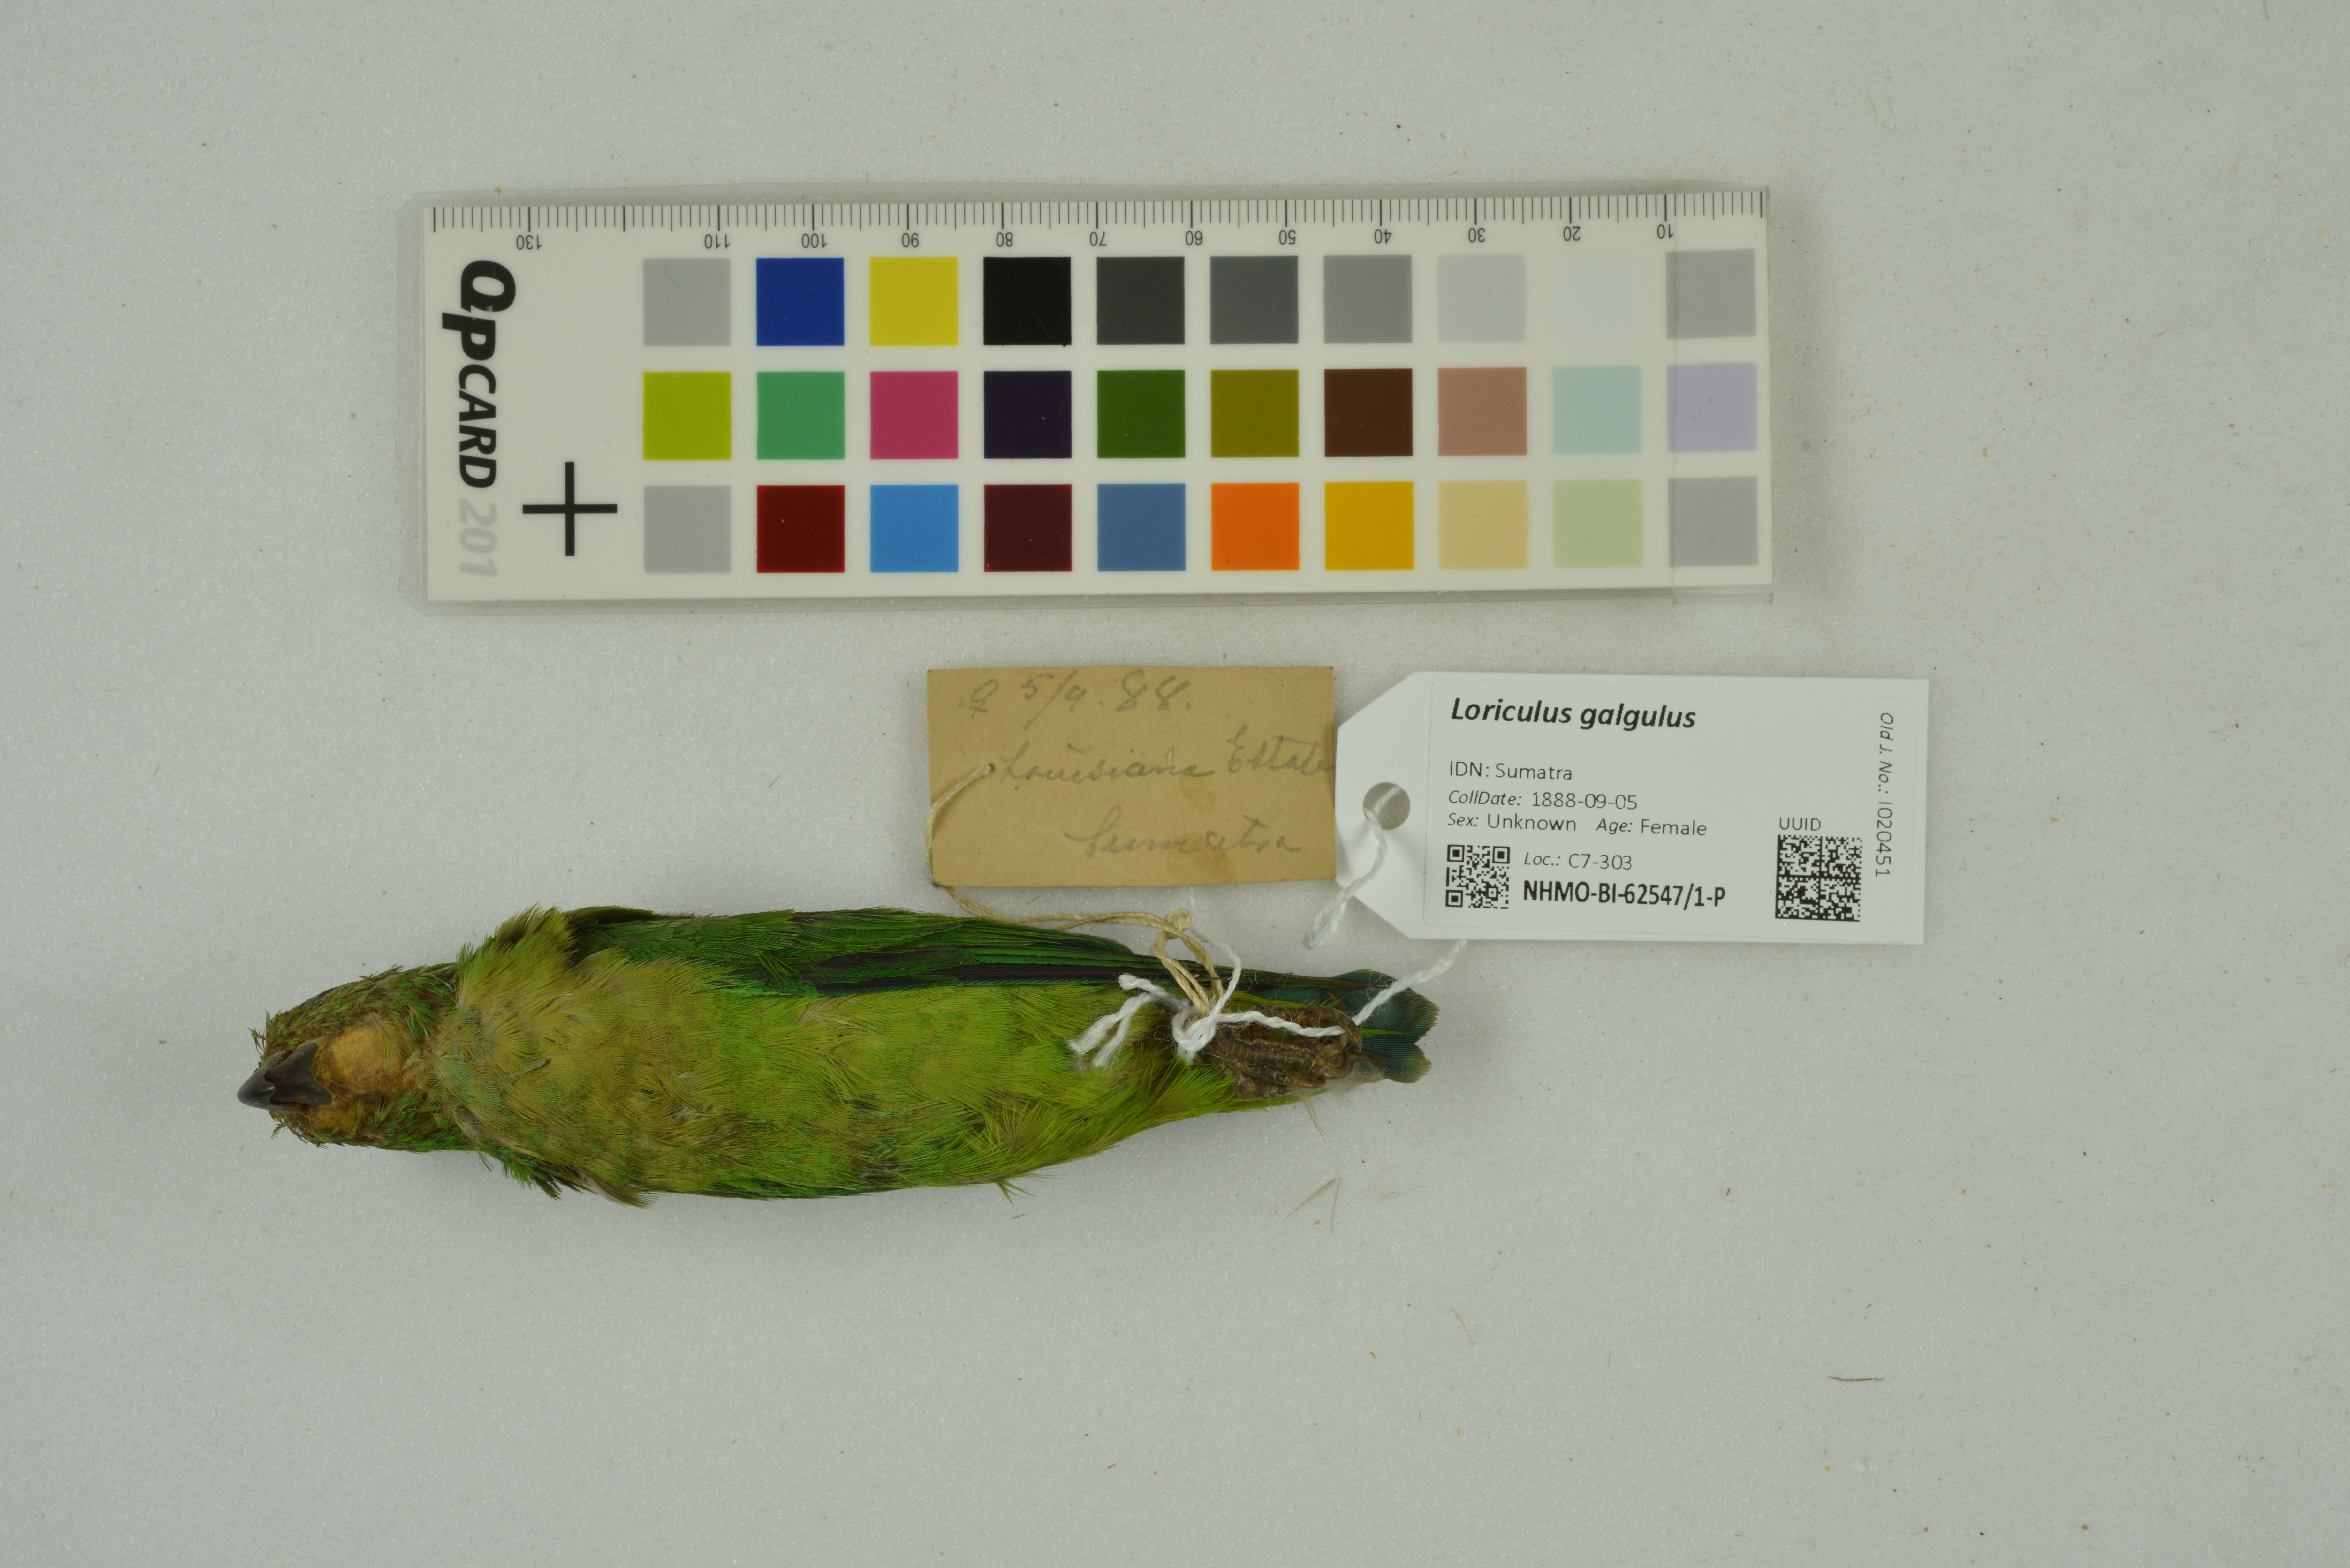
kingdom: Animalia
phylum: Chordata
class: Aves
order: Psittaciformes
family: Psittacidae
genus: Loriculus
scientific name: Loriculus galgulus
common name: Blue-crowned hanging parrot
